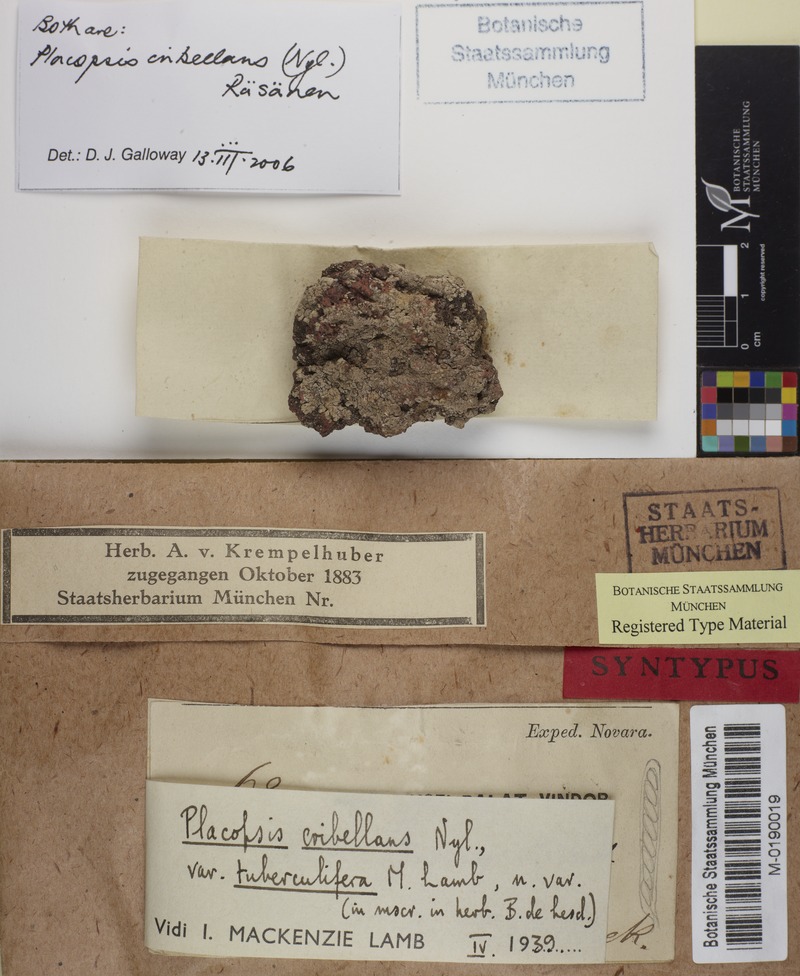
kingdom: Fungi
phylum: Ascomycota
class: Lecanoromycetes
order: Baeomycetales
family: Trapeliaceae
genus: Placopsis
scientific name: Placopsis cribellans
